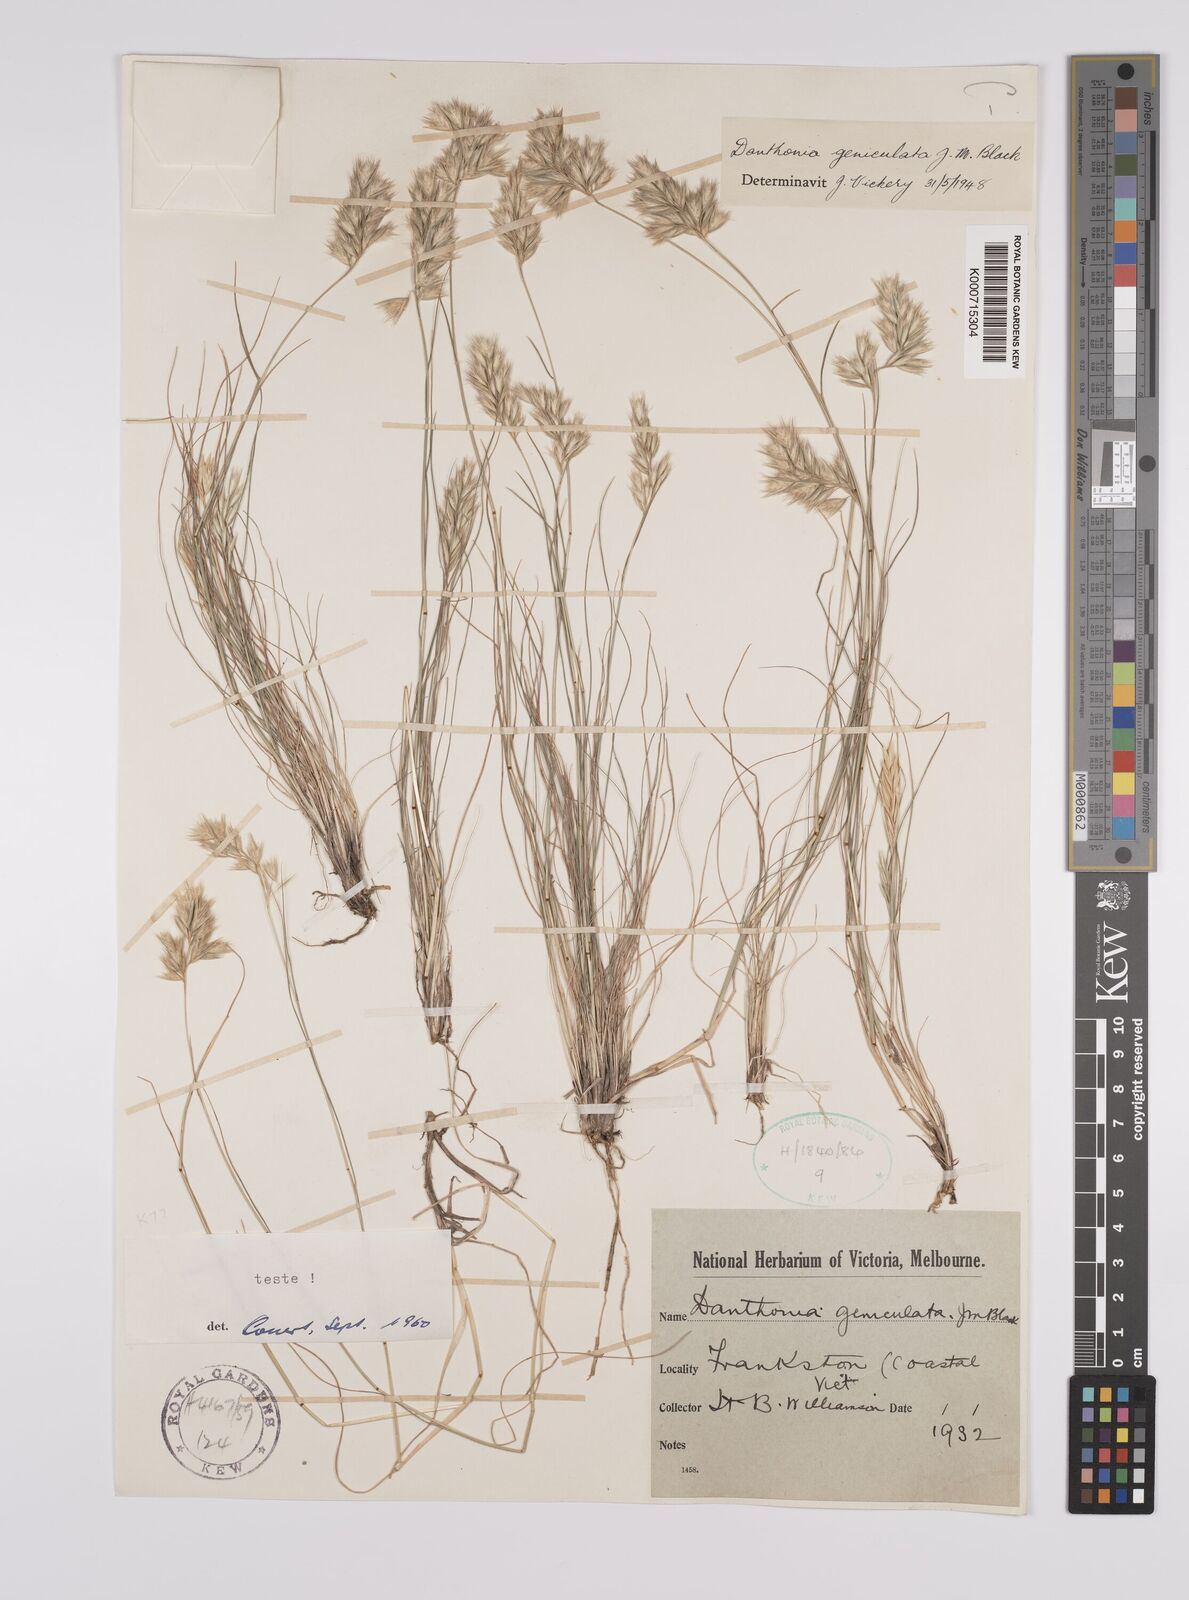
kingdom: Plantae
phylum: Tracheophyta
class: Liliopsida
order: Poales
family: Poaceae
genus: Rytidosperma
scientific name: Rytidosperma geniculatum
